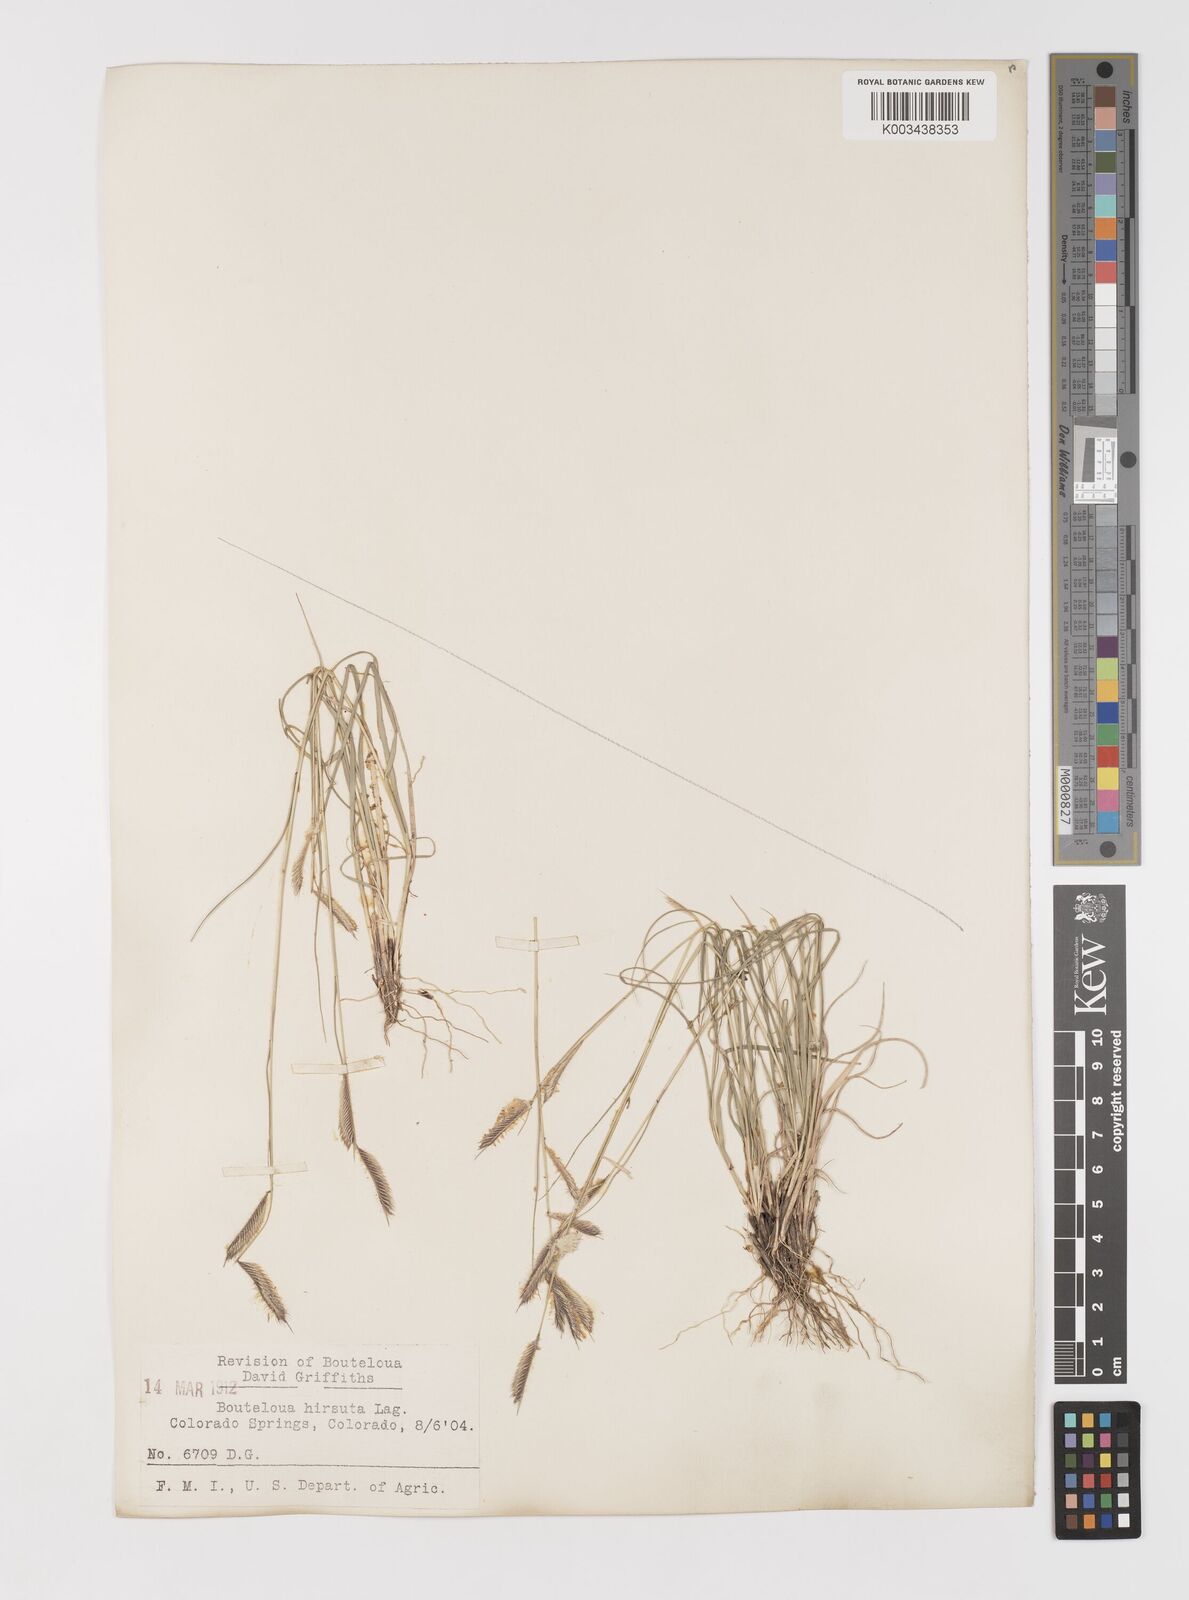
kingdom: Plantae
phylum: Tracheophyta
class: Liliopsida
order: Poales
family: Poaceae
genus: Bouteloua
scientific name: Bouteloua hirsuta
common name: Hairy grama
